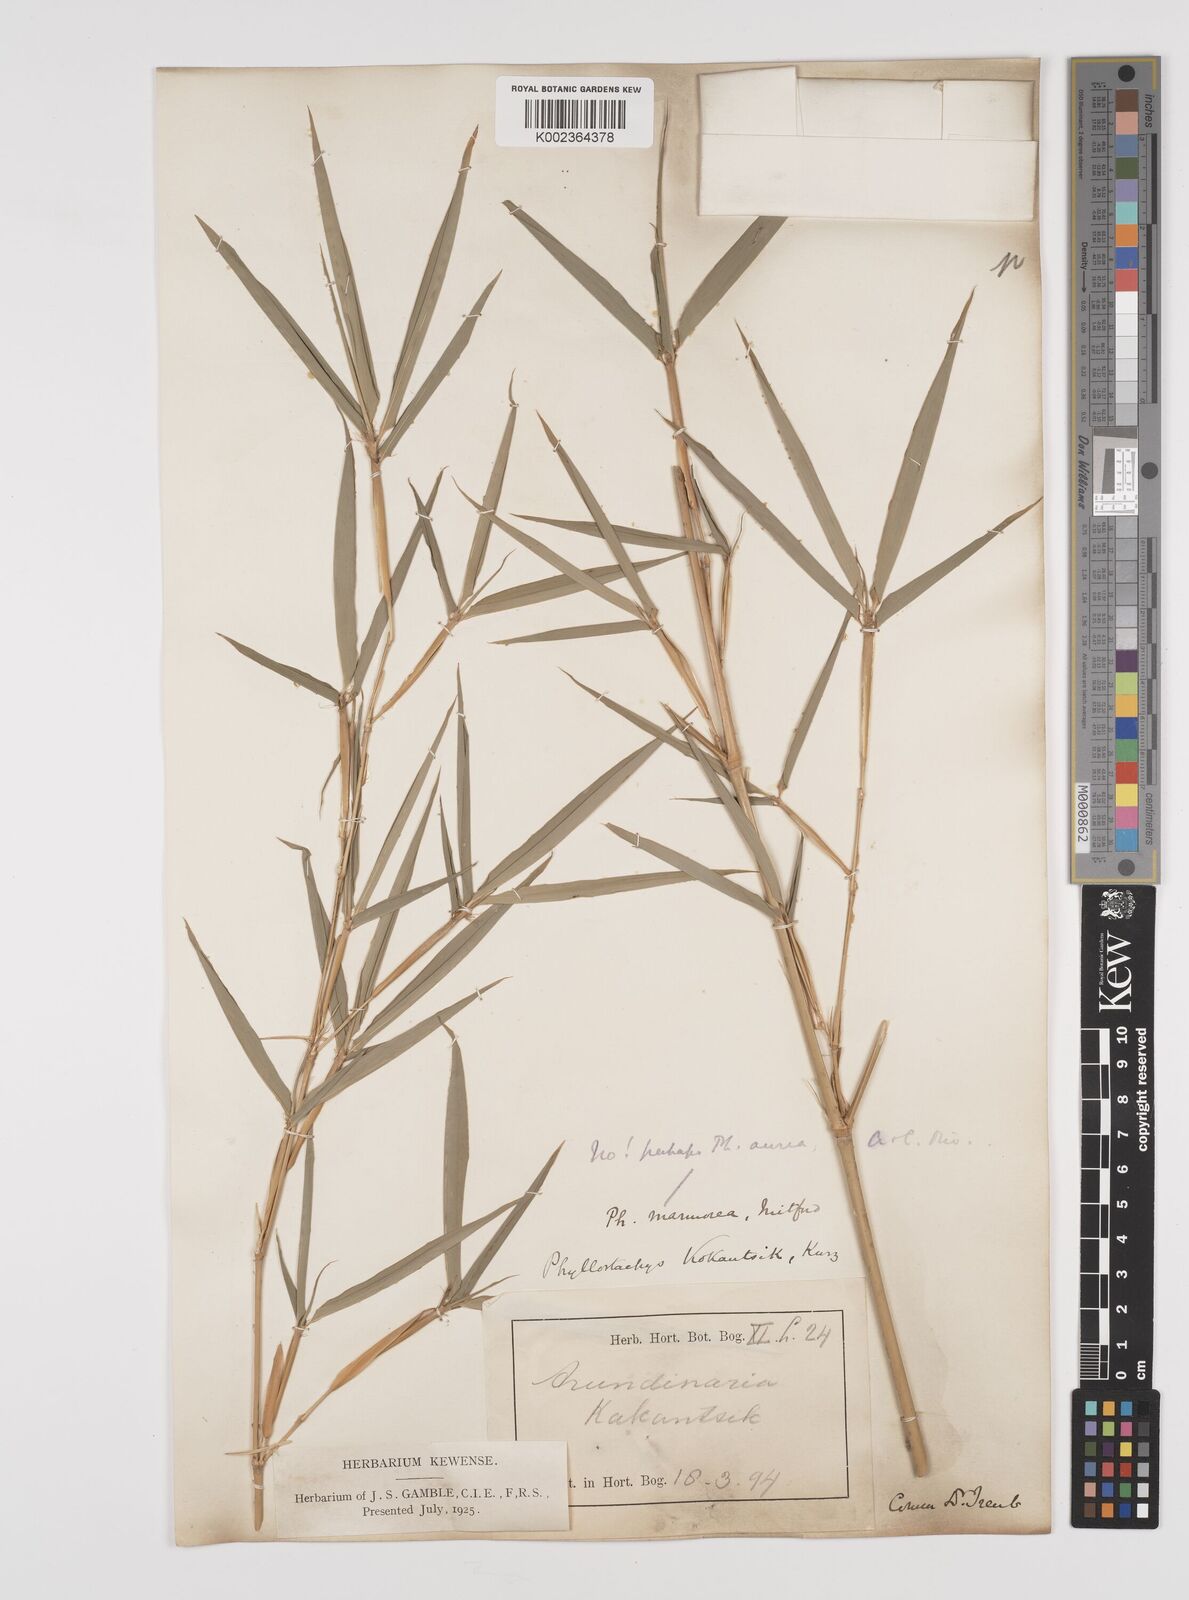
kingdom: Plantae
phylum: Tracheophyta
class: Liliopsida
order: Poales
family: Poaceae
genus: Phyllostachys
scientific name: Phyllostachys aurea
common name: Golden bamboo
